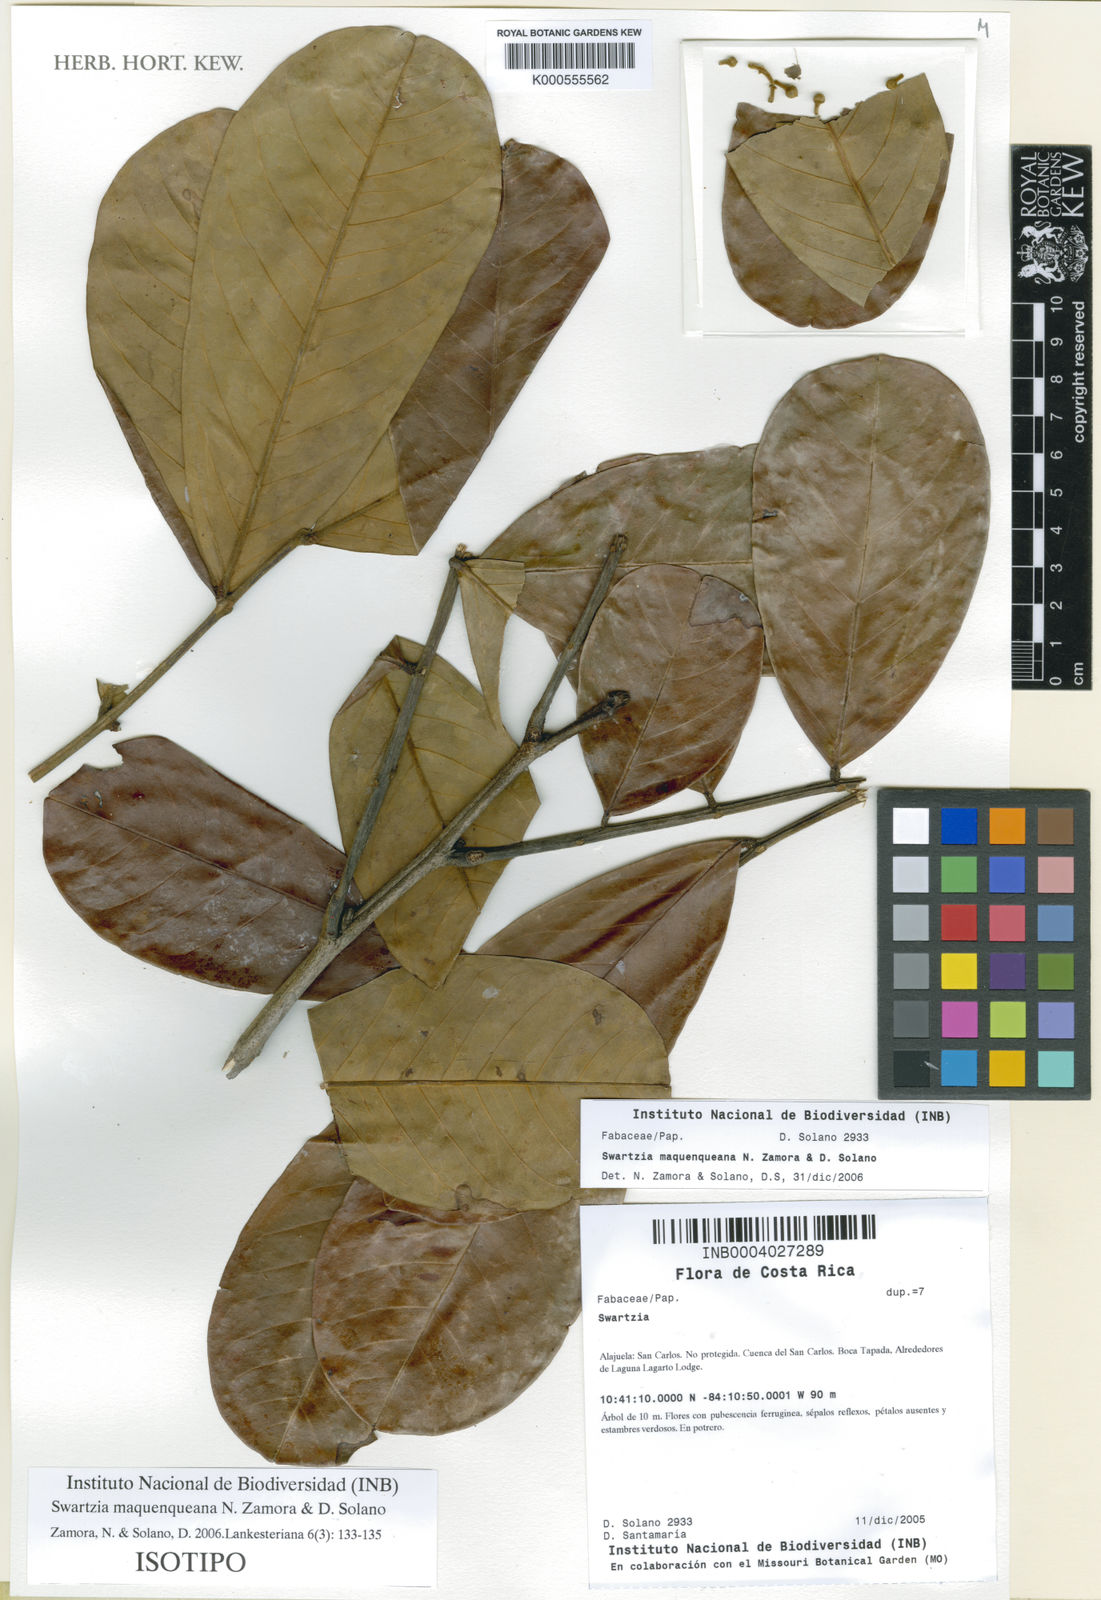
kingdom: Plantae
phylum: Tracheophyta
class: Magnoliopsida
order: Fabales
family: Fabaceae
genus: Swartzia
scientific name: Swartzia maquenqueana
